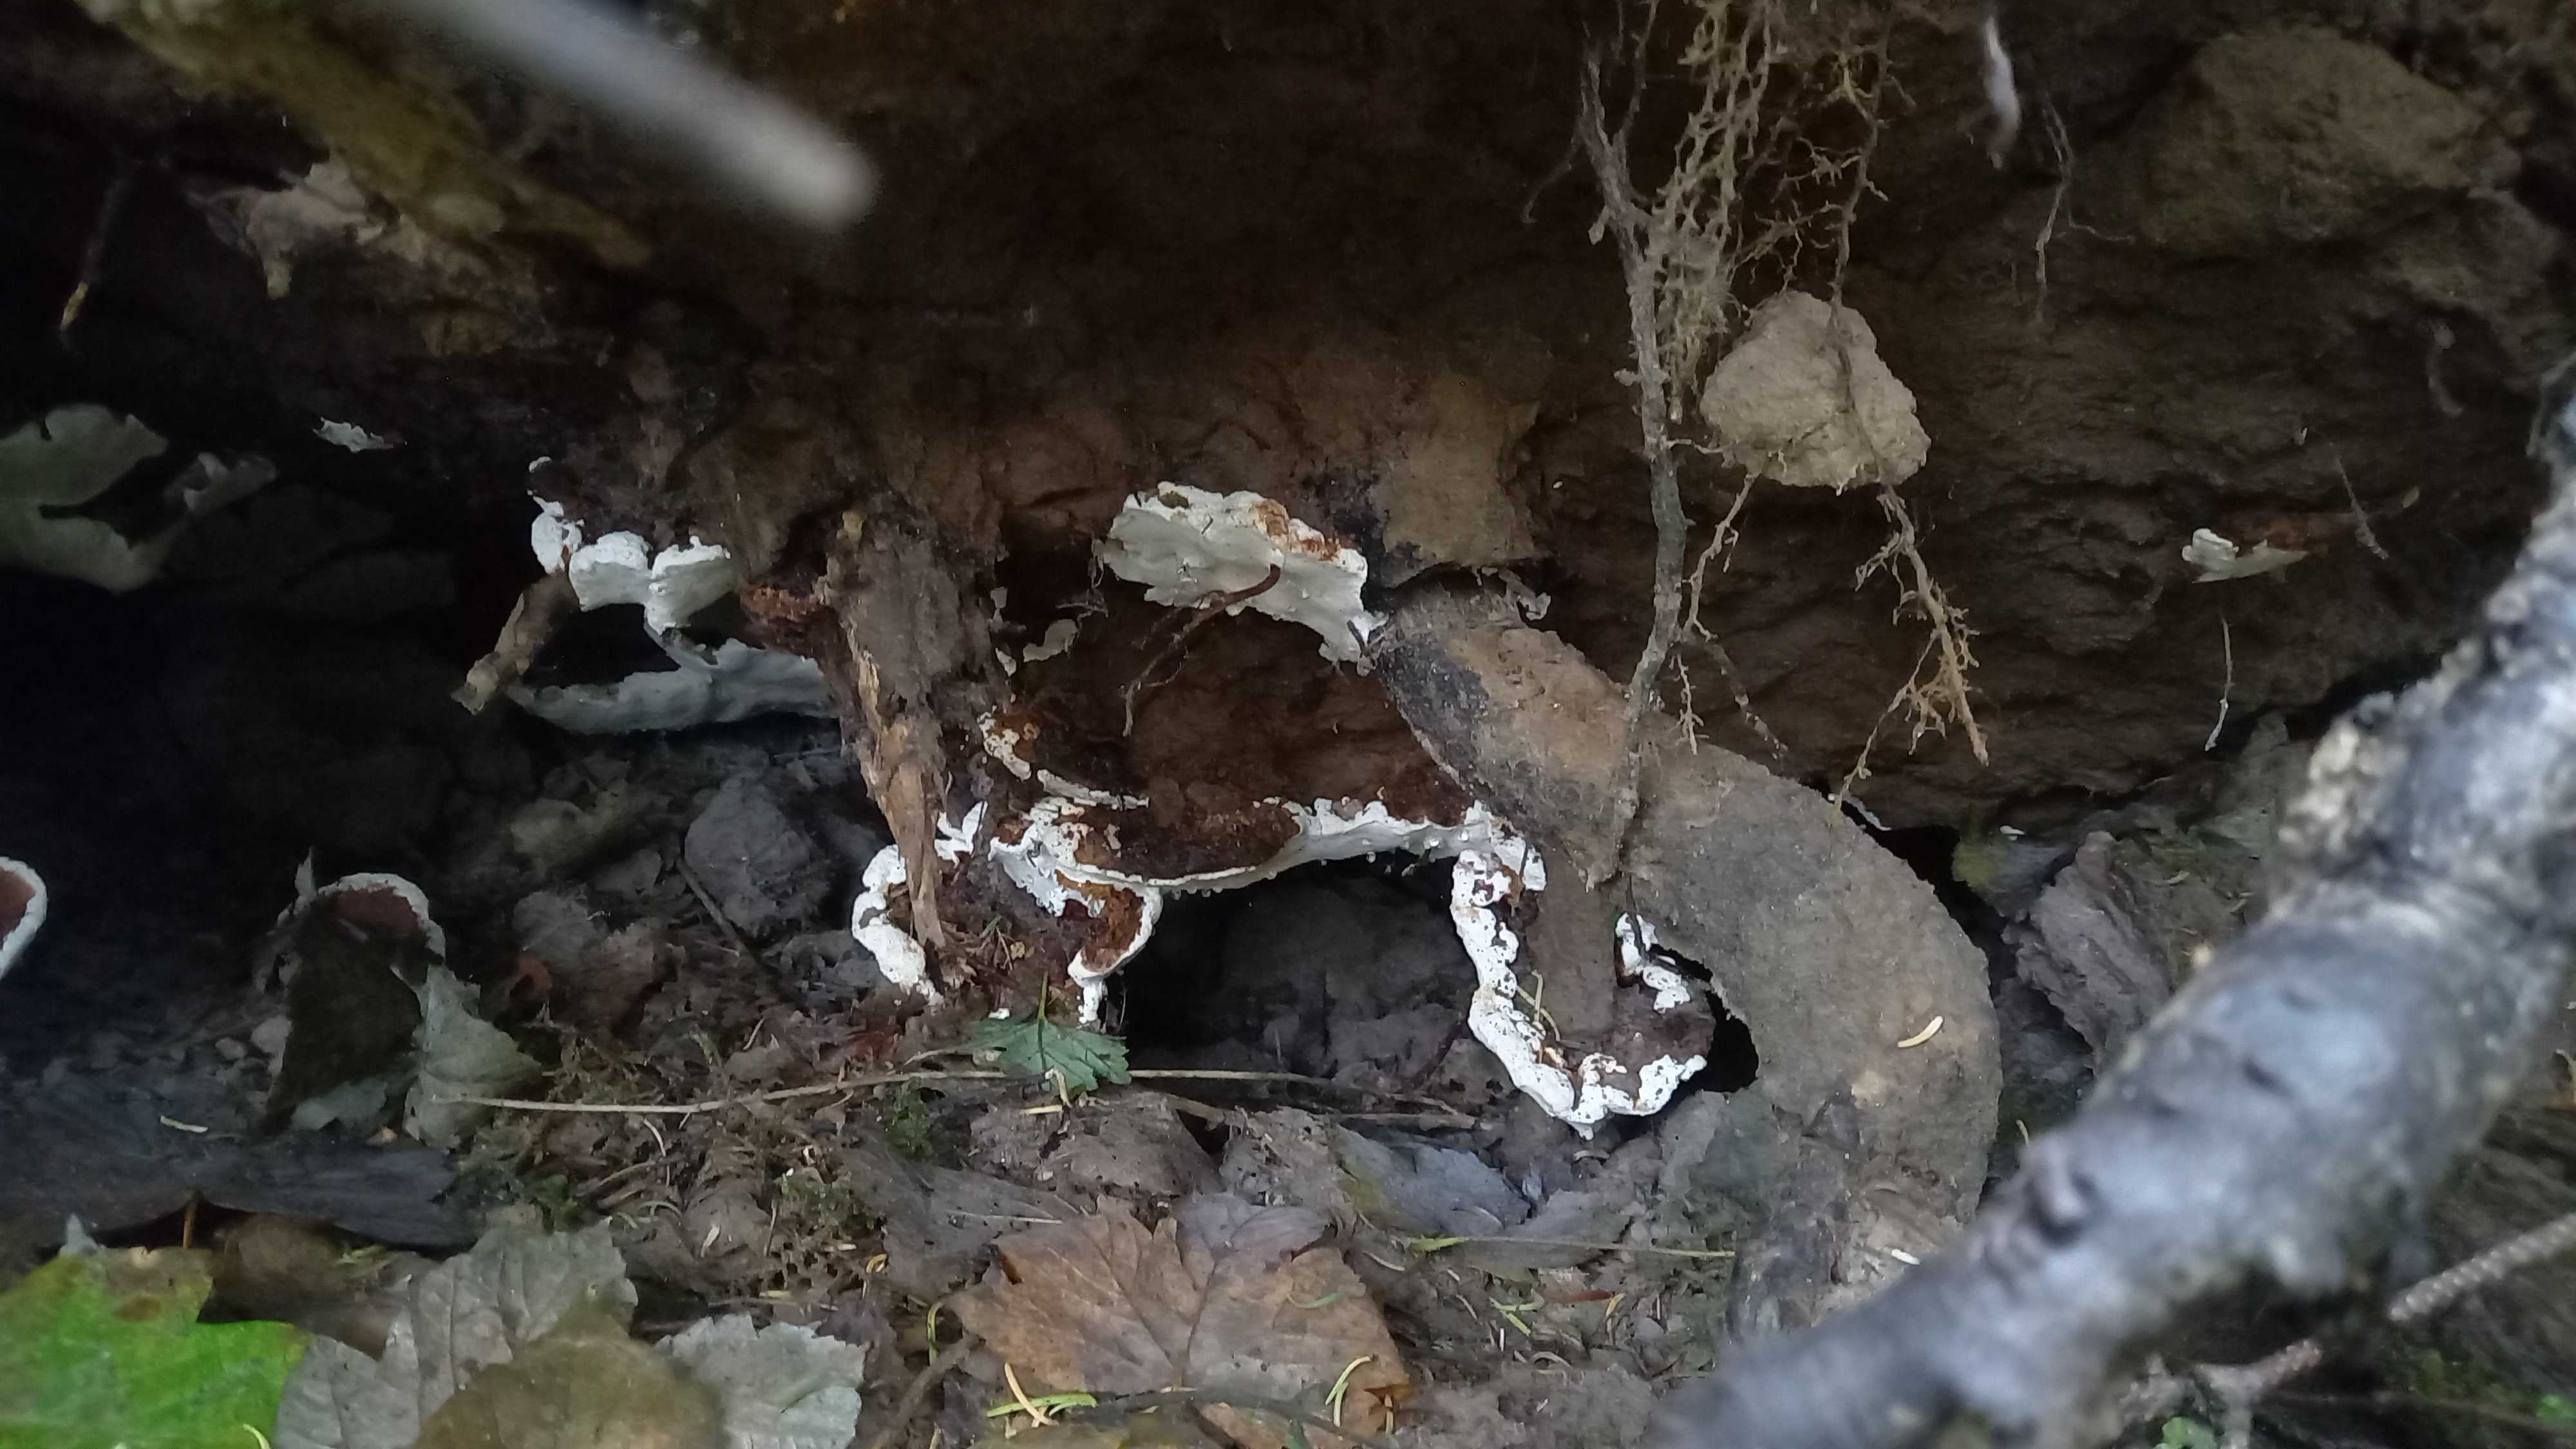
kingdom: Fungi
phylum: Basidiomycota
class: Agaricomycetes
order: Russulales
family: Bondarzewiaceae
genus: Heterobasidion
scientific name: Heterobasidion annosum
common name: almindelig rodfordærver
